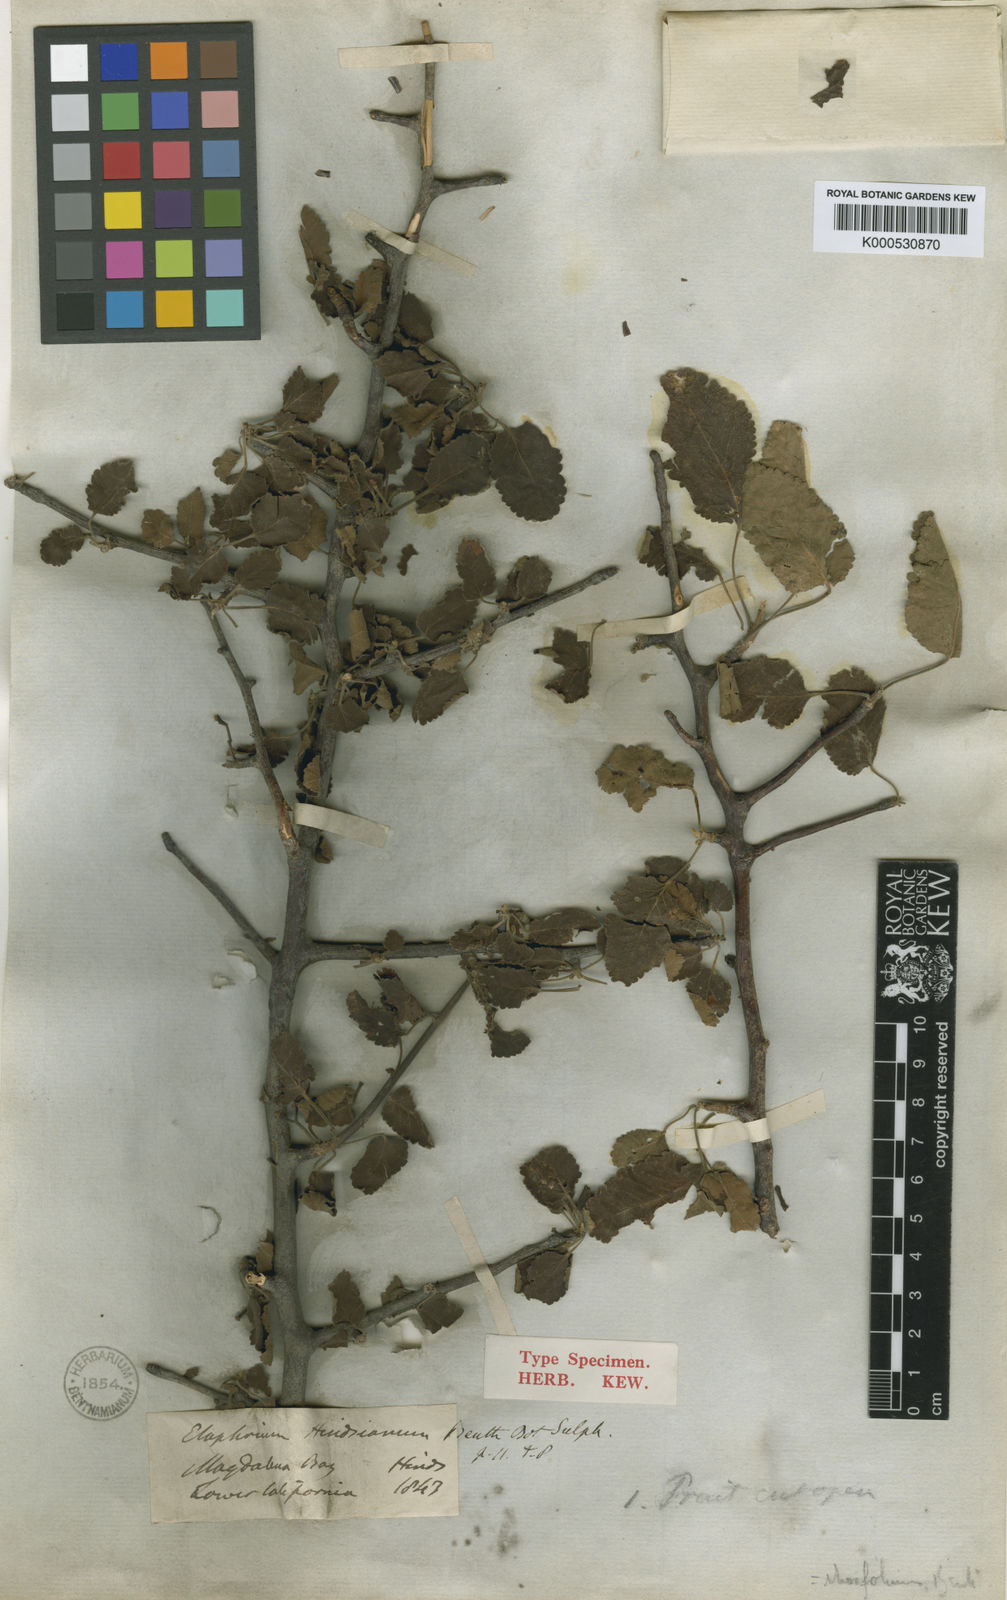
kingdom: Plantae
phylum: Tracheophyta
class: Magnoliopsida
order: Sapindales
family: Burseraceae
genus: Bursera
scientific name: Bursera hindsiana
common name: Red elephant tree
